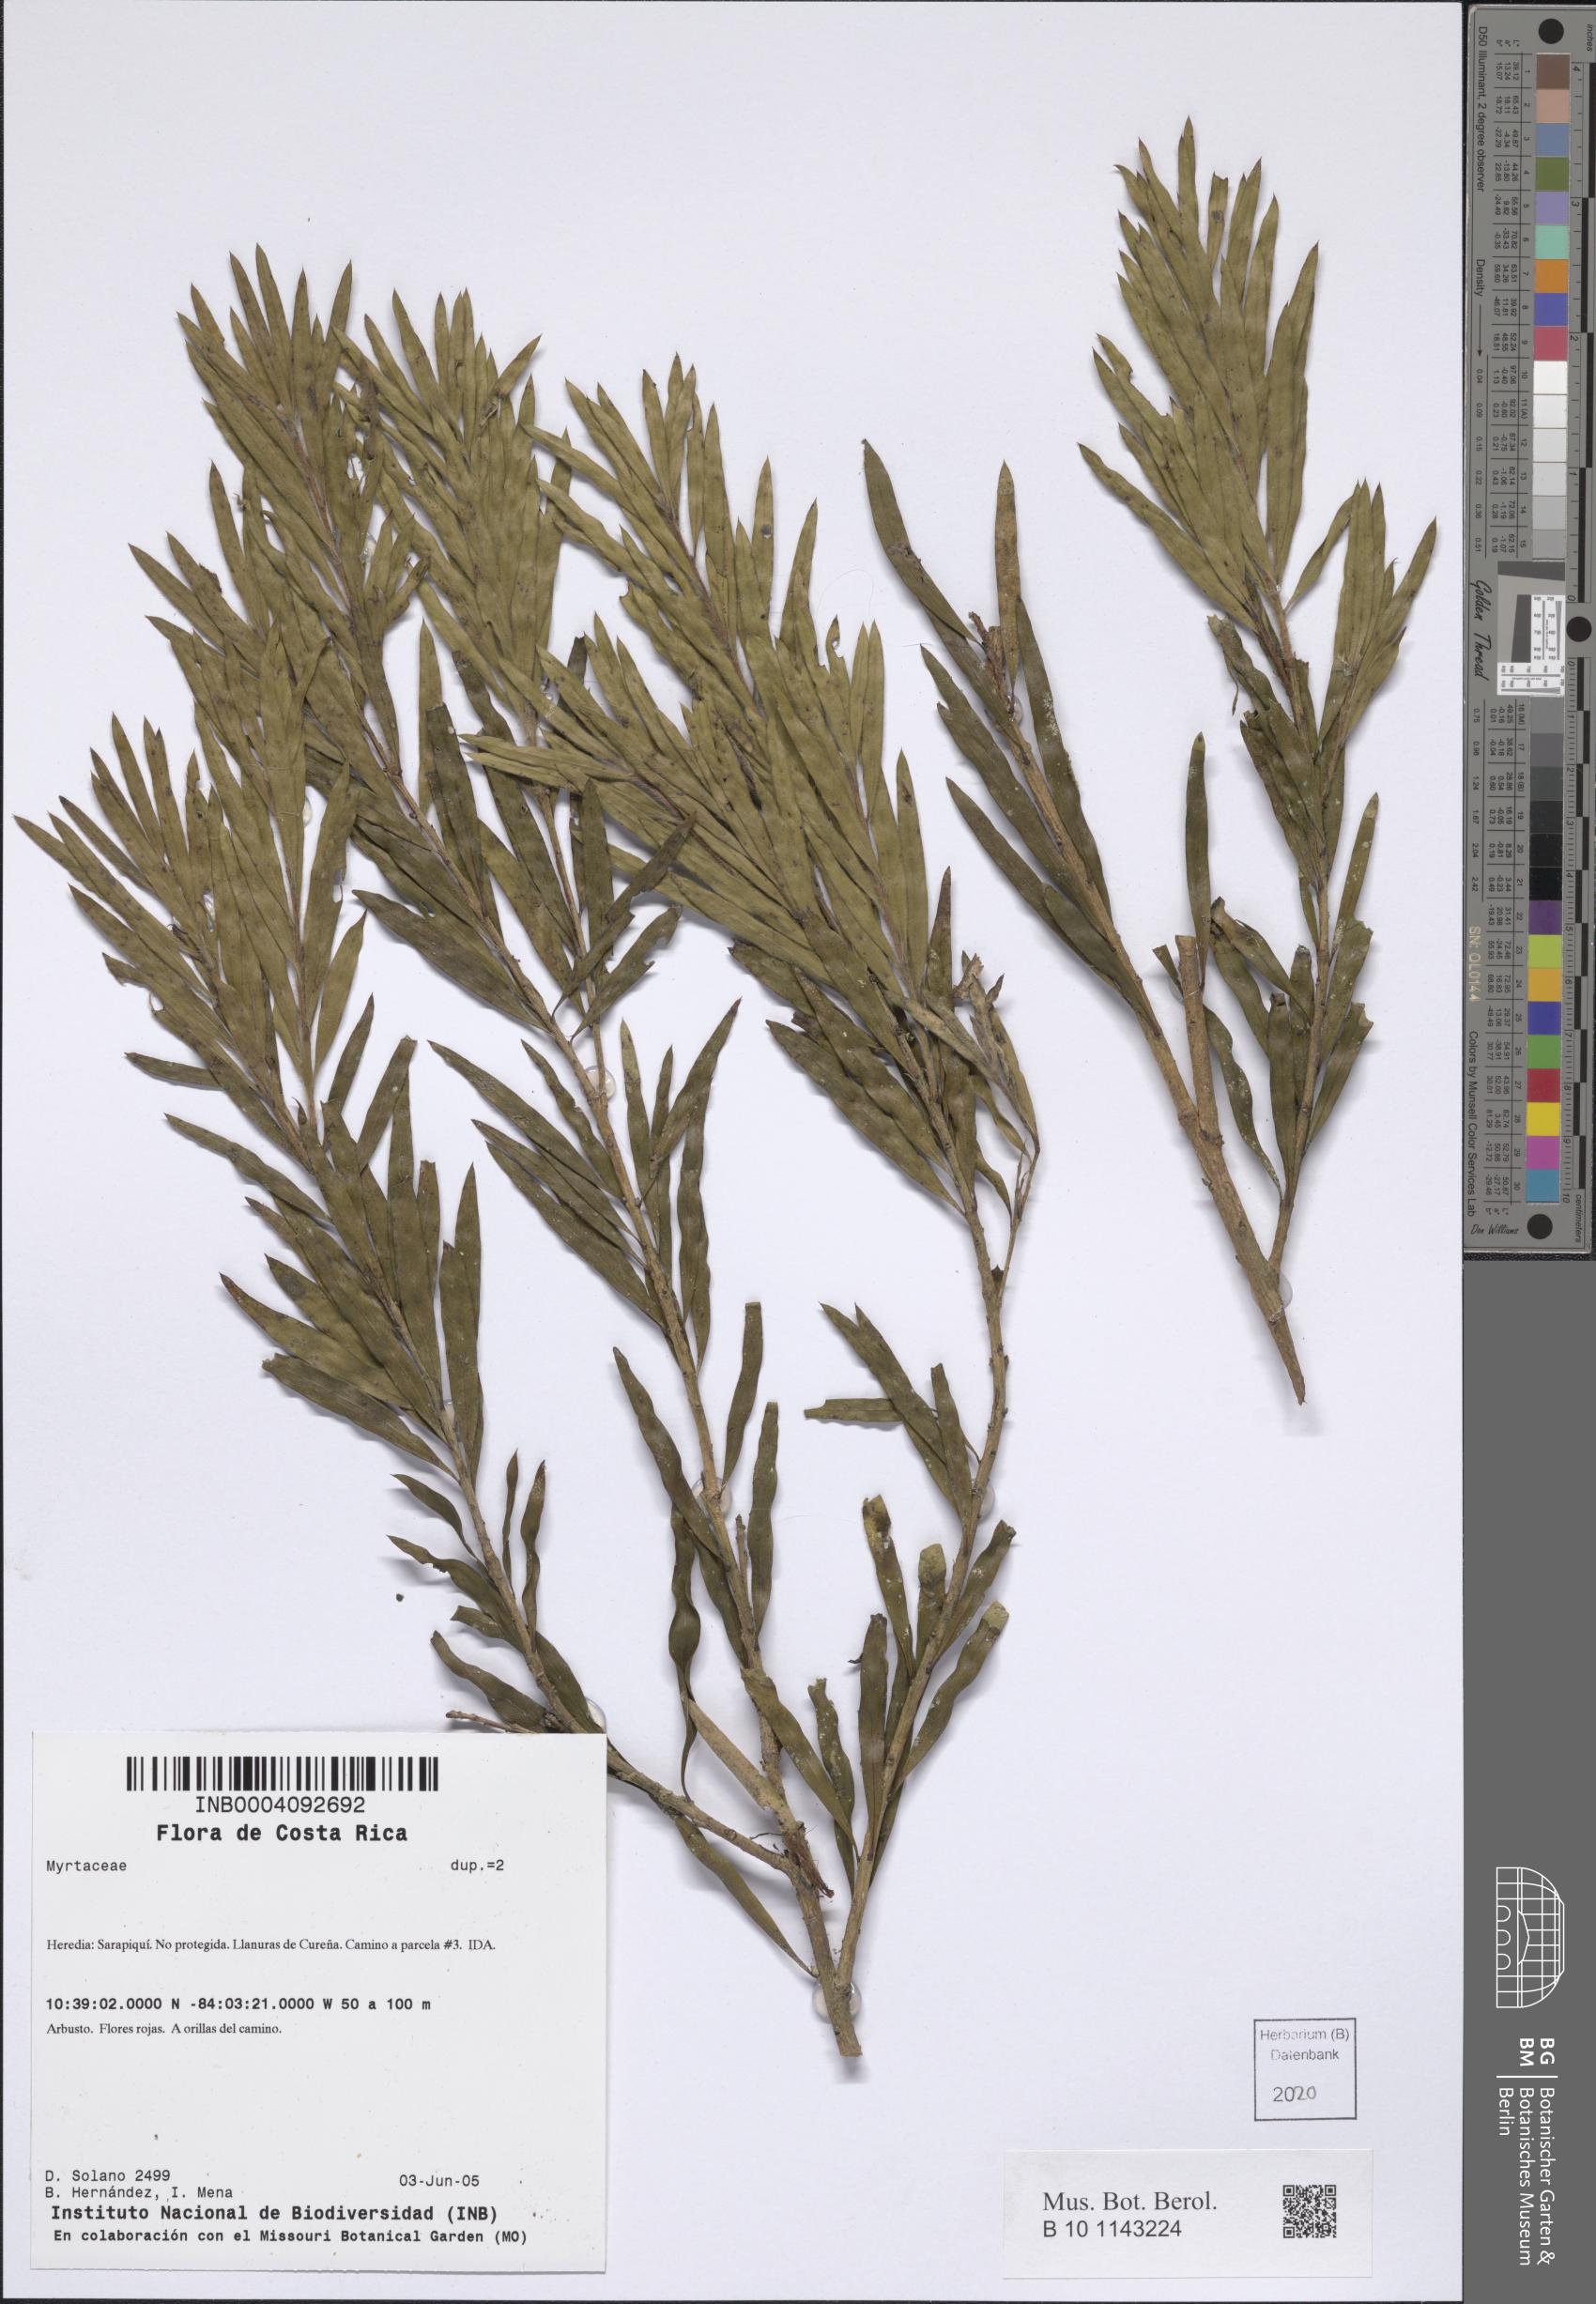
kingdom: Plantae
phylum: Tracheophyta
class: Magnoliopsida
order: Myrtales
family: Myrtaceae
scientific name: Myrtaceae
